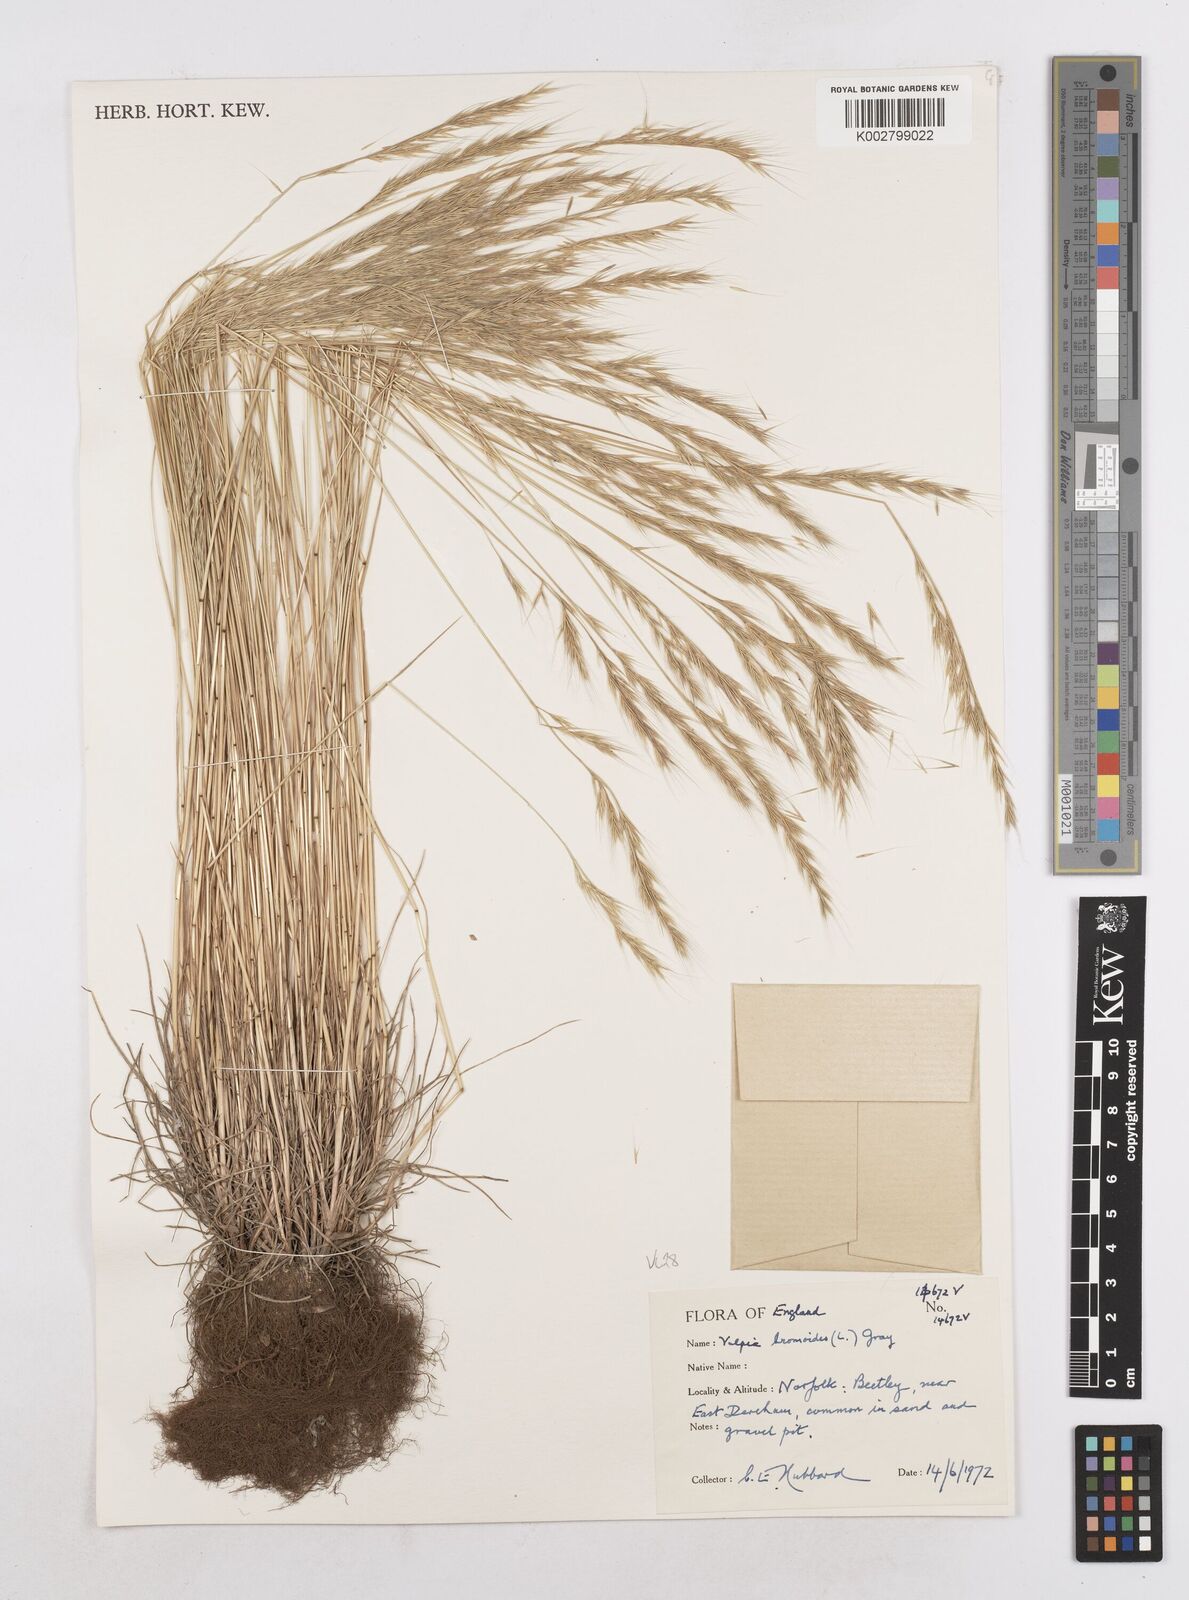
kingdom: Plantae
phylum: Tracheophyta
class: Liliopsida
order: Poales
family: Poaceae
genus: Festuca
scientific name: Festuca bromoides
